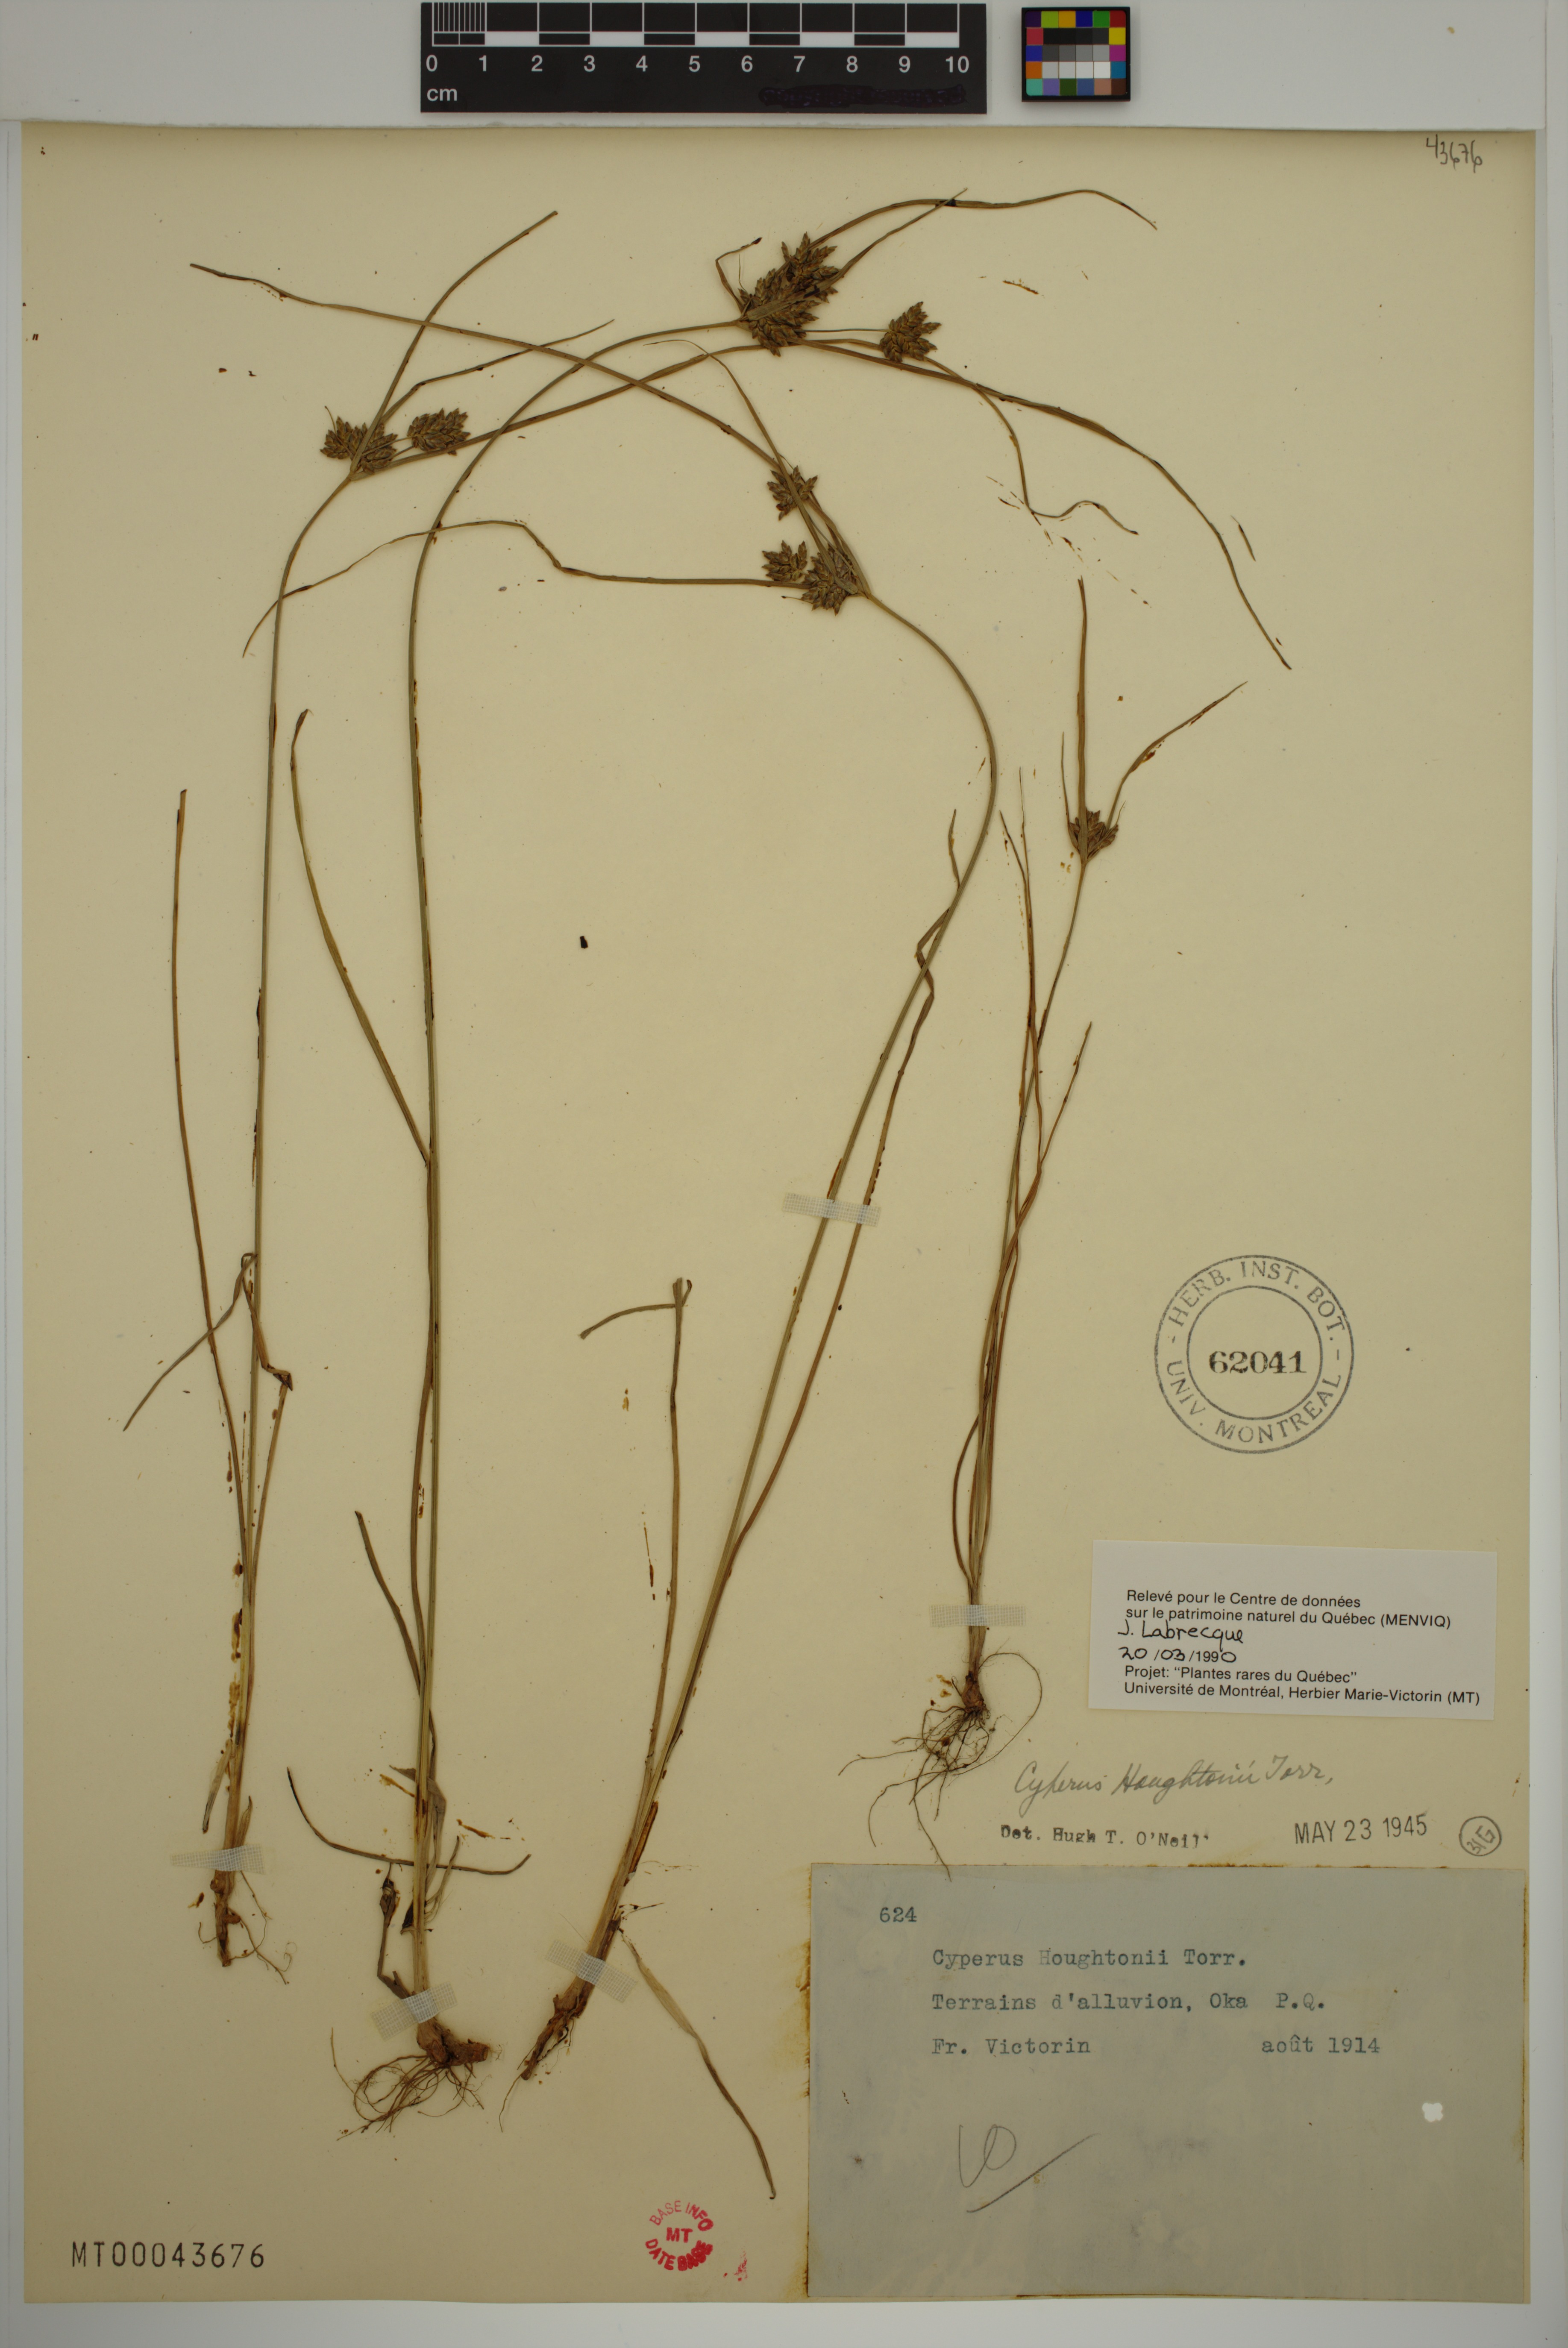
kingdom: Plantae
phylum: Tracheophyta
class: Liliopsida
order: Poales
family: Cyperaceae
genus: Cyperus
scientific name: Cyperus houghtonii
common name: Houghton's cyperus
